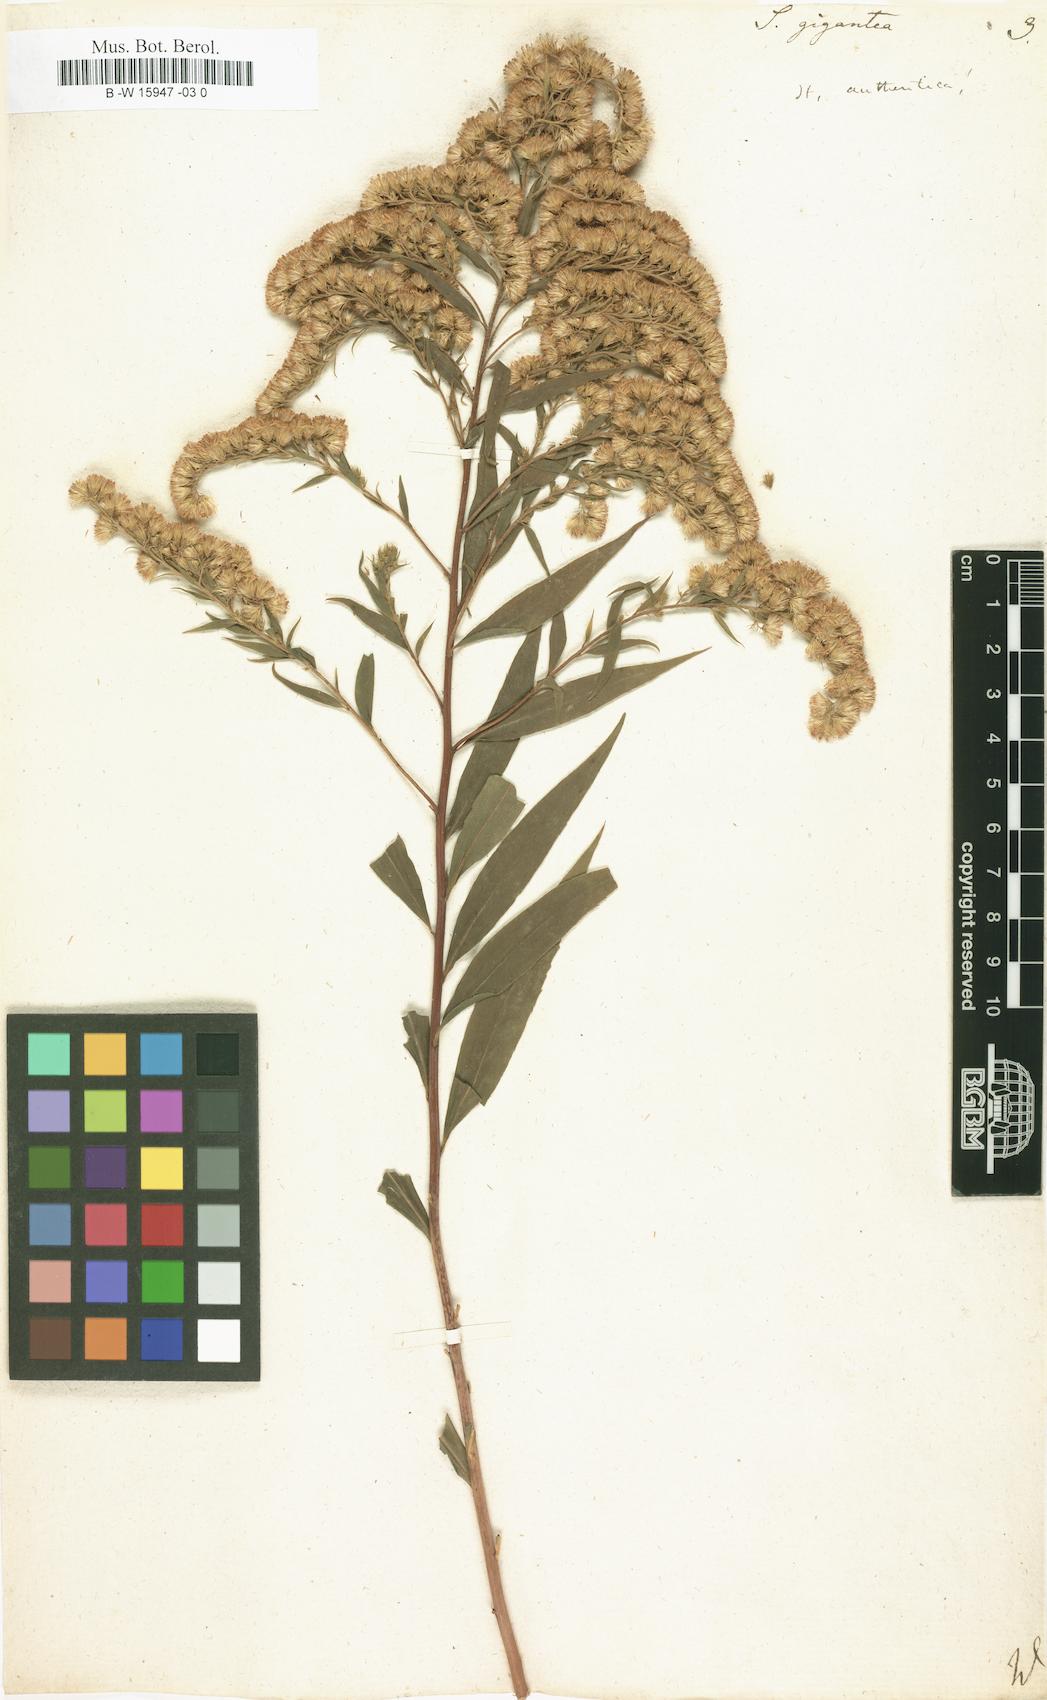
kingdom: Plantae
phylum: Tracheophyta
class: Magnoliopsida
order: Asterales
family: Asteraceae
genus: Solidago
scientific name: Solidago gigantea
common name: Giant goldenrod
